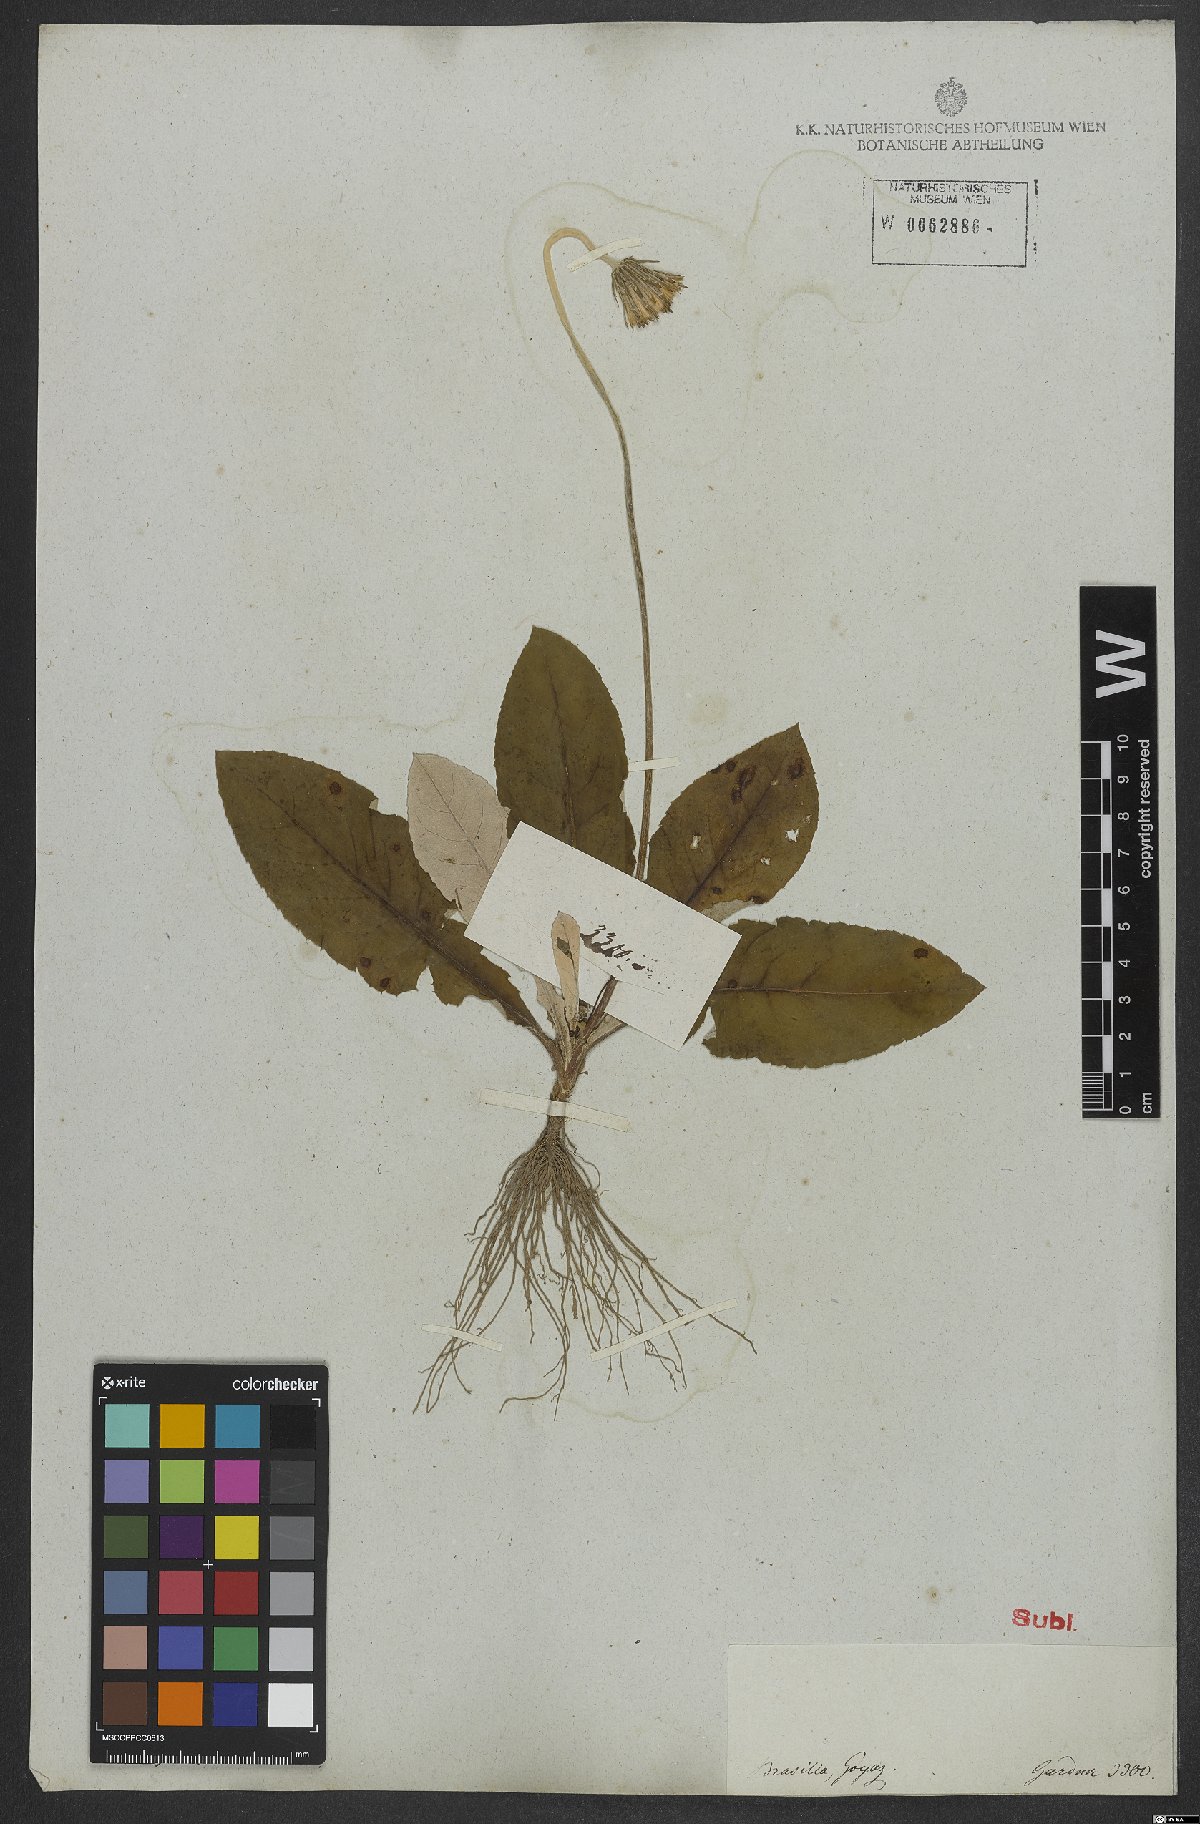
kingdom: Plantae
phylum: Tracheophyta
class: Magnoliopsida
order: Asterales
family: Asteraceae
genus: Chaptalia
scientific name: Chaptalia nutans
